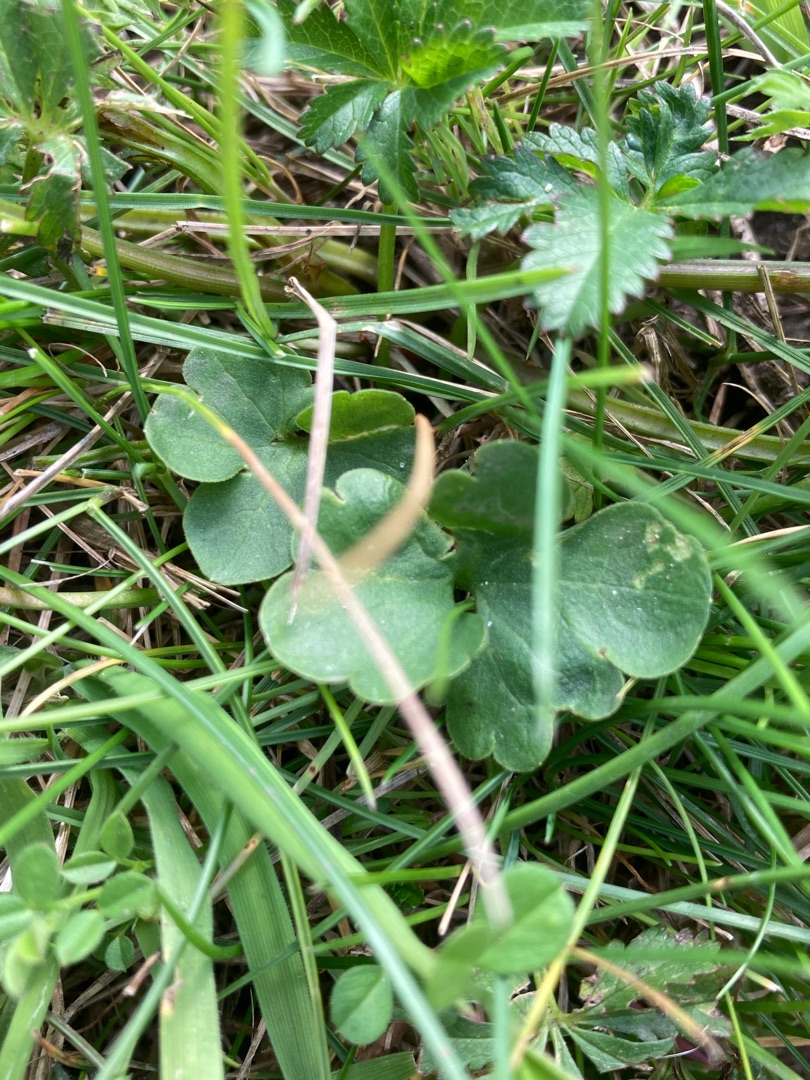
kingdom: Plantae
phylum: Tracheophyta
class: Magnoliopsida
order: Saxifragales
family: Saxifragaceae
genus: Saxifraga
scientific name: Saxifraga granulata
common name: Kornet stenbræk
